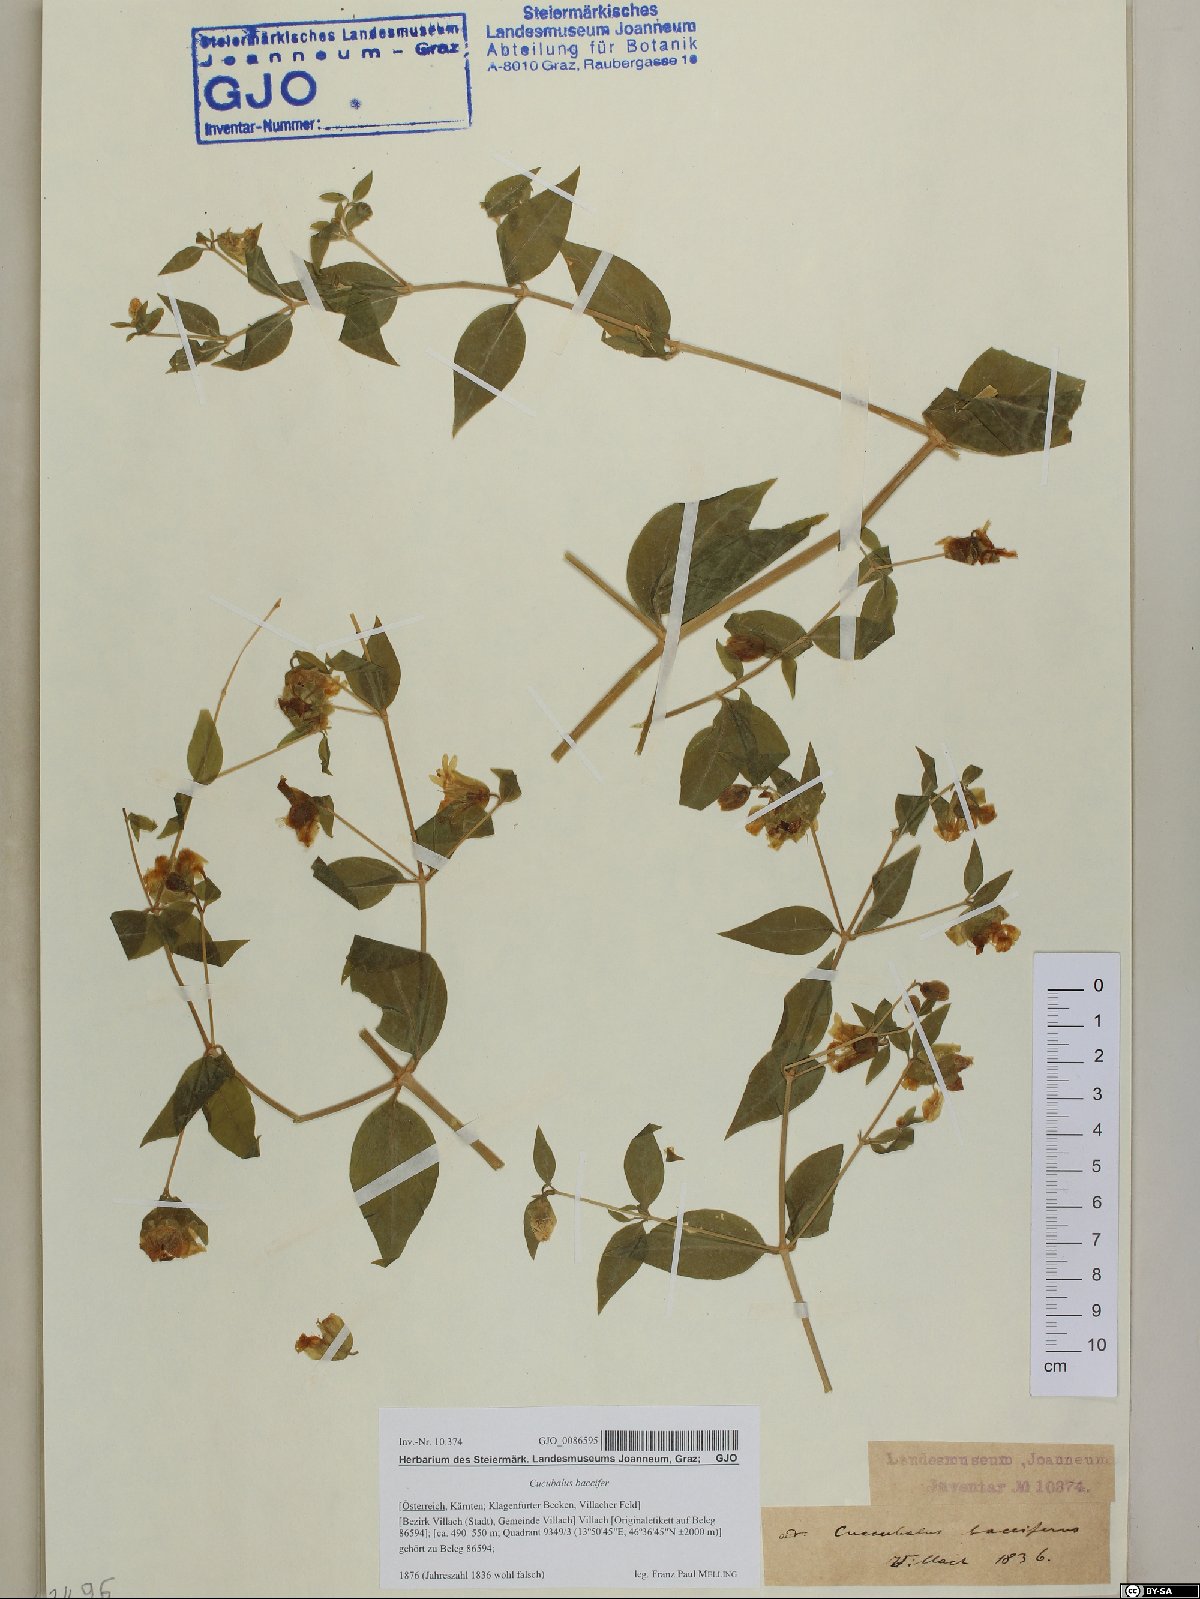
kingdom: Plantae
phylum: Tracheophyta
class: Magnoliopsida
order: Caryophyllales
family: Caryophyllaceae
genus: Silene
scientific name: Silene baccifera
